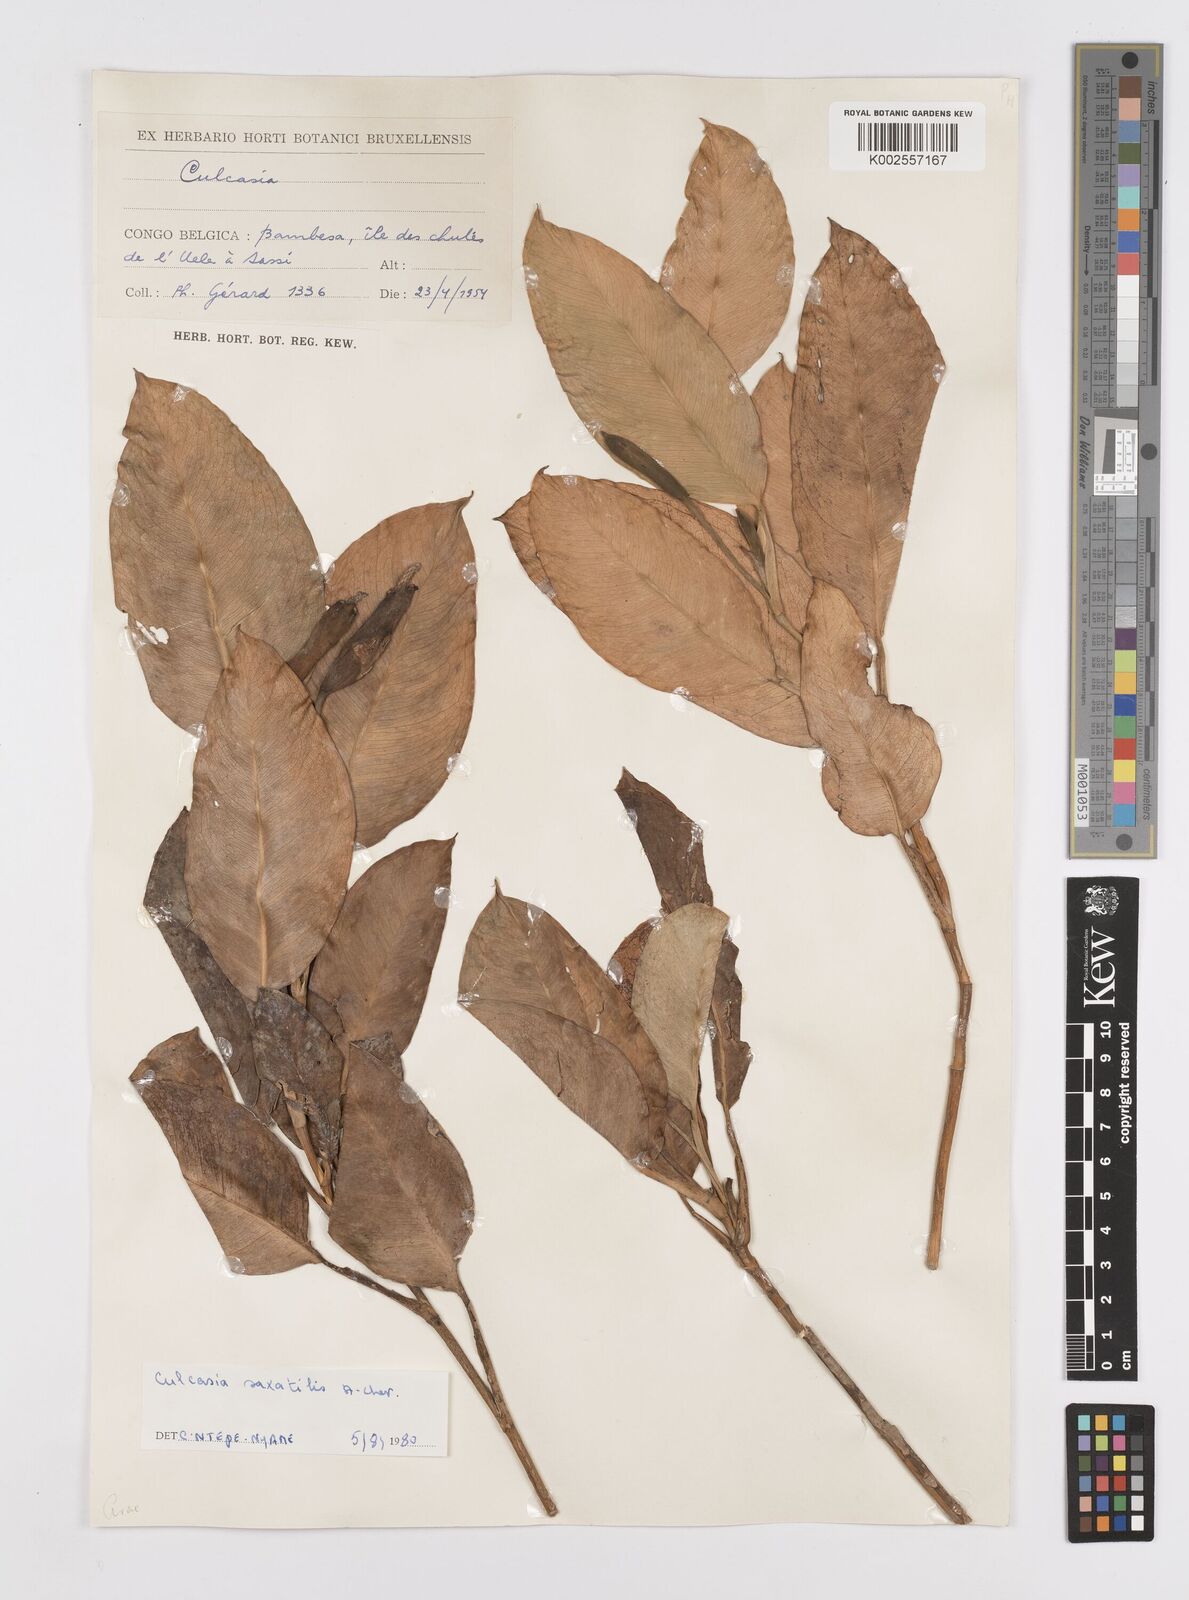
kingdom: Plantae
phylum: Tracheophyta
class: Liliopsida
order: Alismatales
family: Araceae
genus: Culcasia
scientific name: Culcasia scandens
